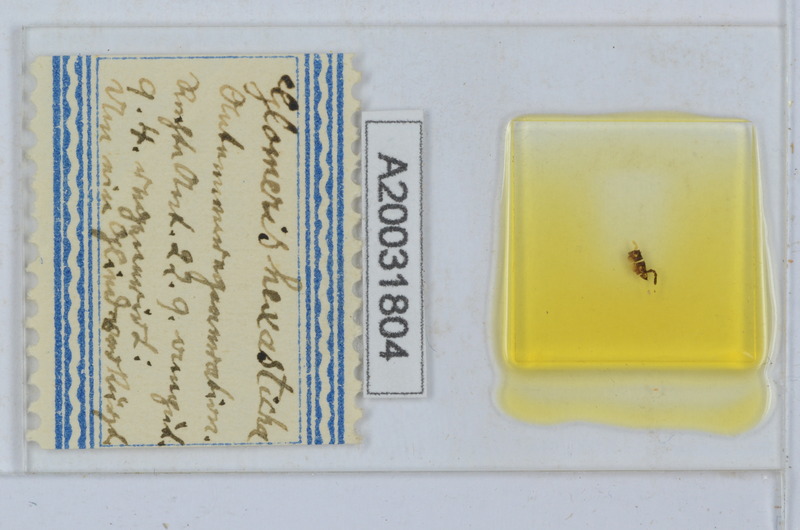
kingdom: Animalia
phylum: Arthropoda
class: Diplopoda
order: Glomerida
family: Glomeridae
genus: Glomeris
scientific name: Glomeris hexasticha
